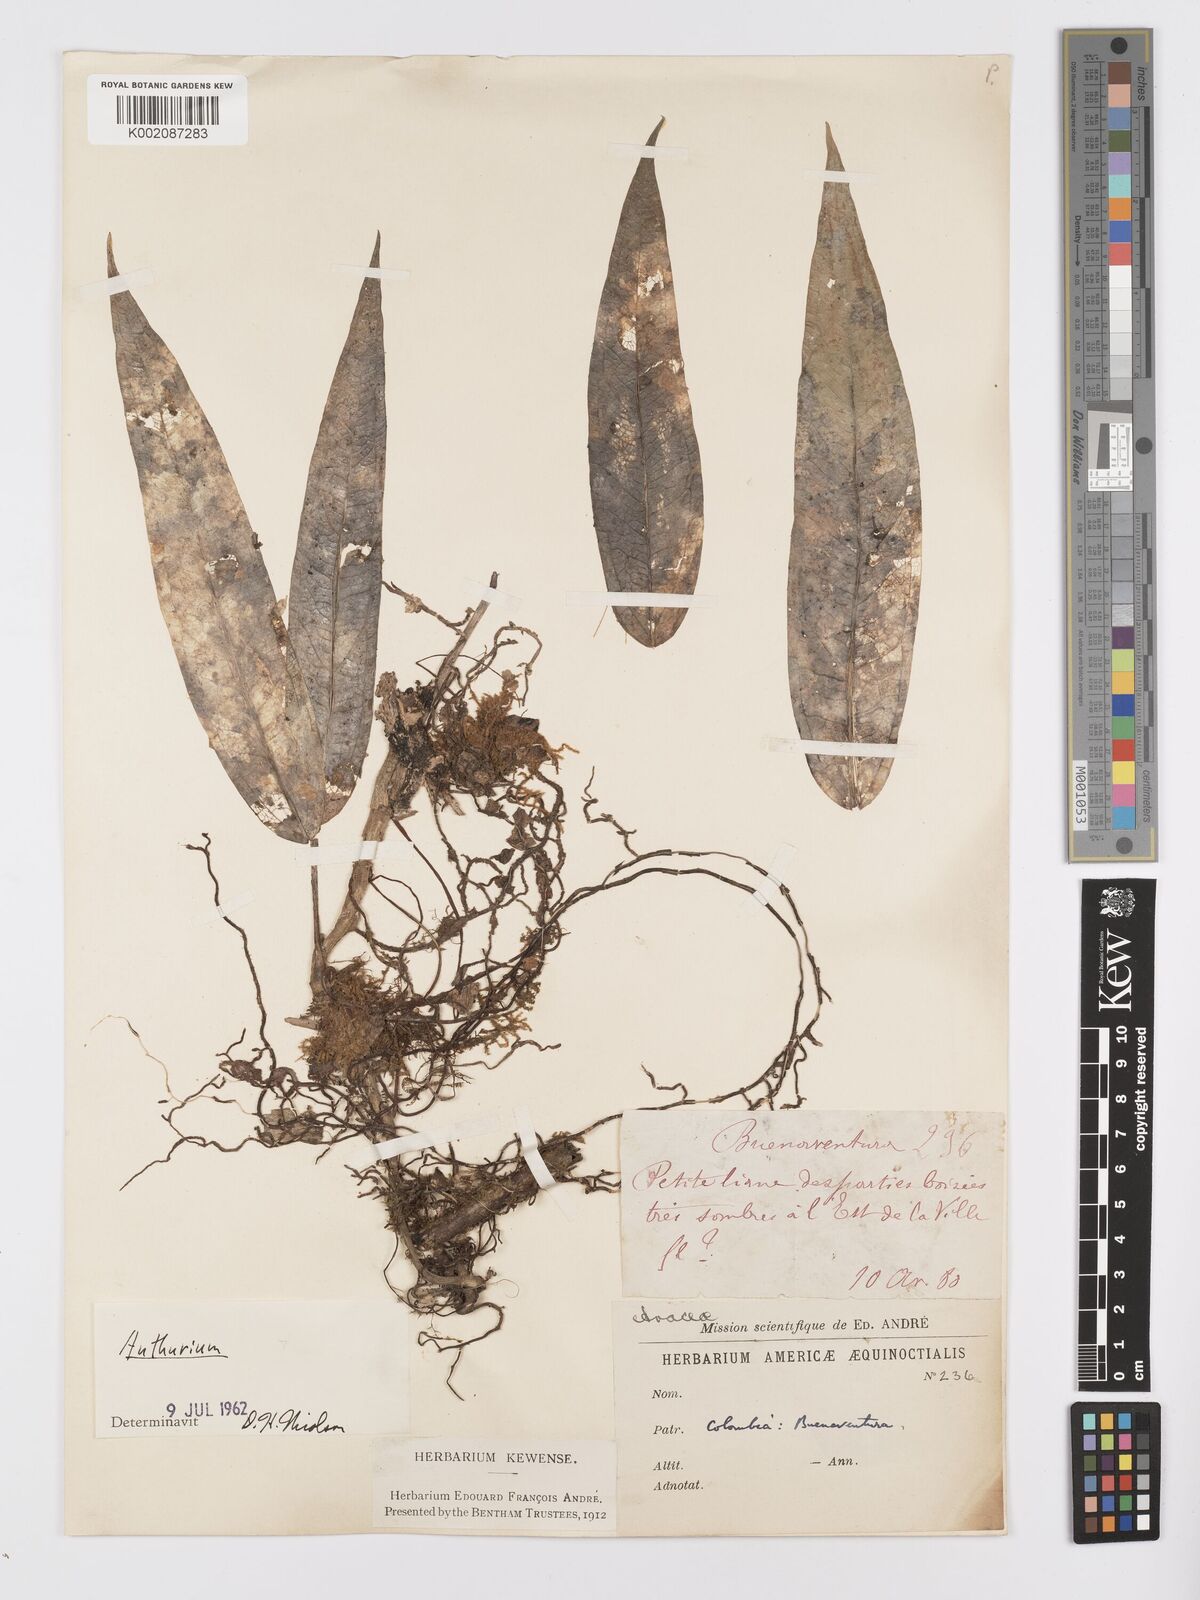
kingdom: Plantae
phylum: Tracheophyta
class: Liliopsida
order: Alismatales
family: Araceae
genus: Anthurium
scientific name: Anthurium
